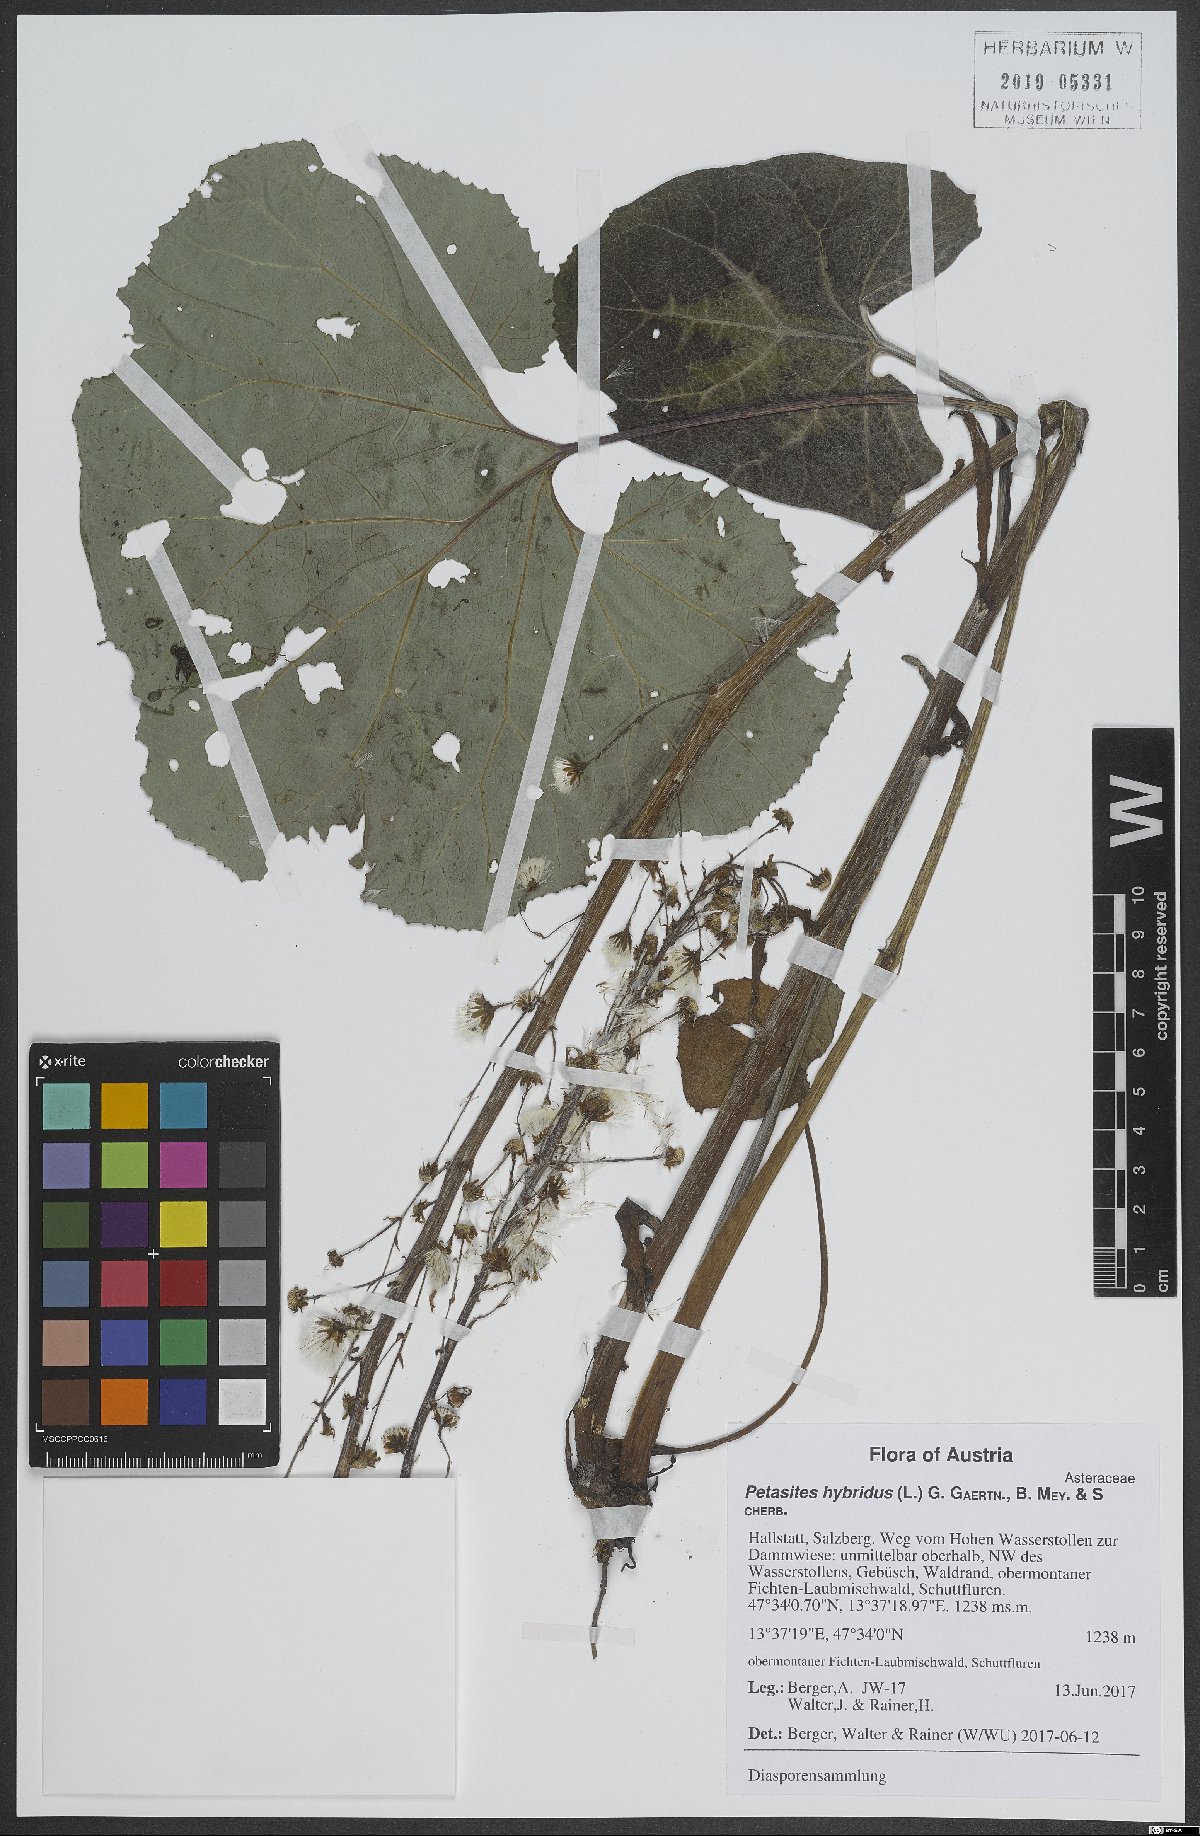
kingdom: Plantae
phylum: Tracheophyta
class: Magnoliopsida
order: Asterales
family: Asteraceae
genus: Petasites
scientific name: Petasites hybridus
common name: Butterbur
